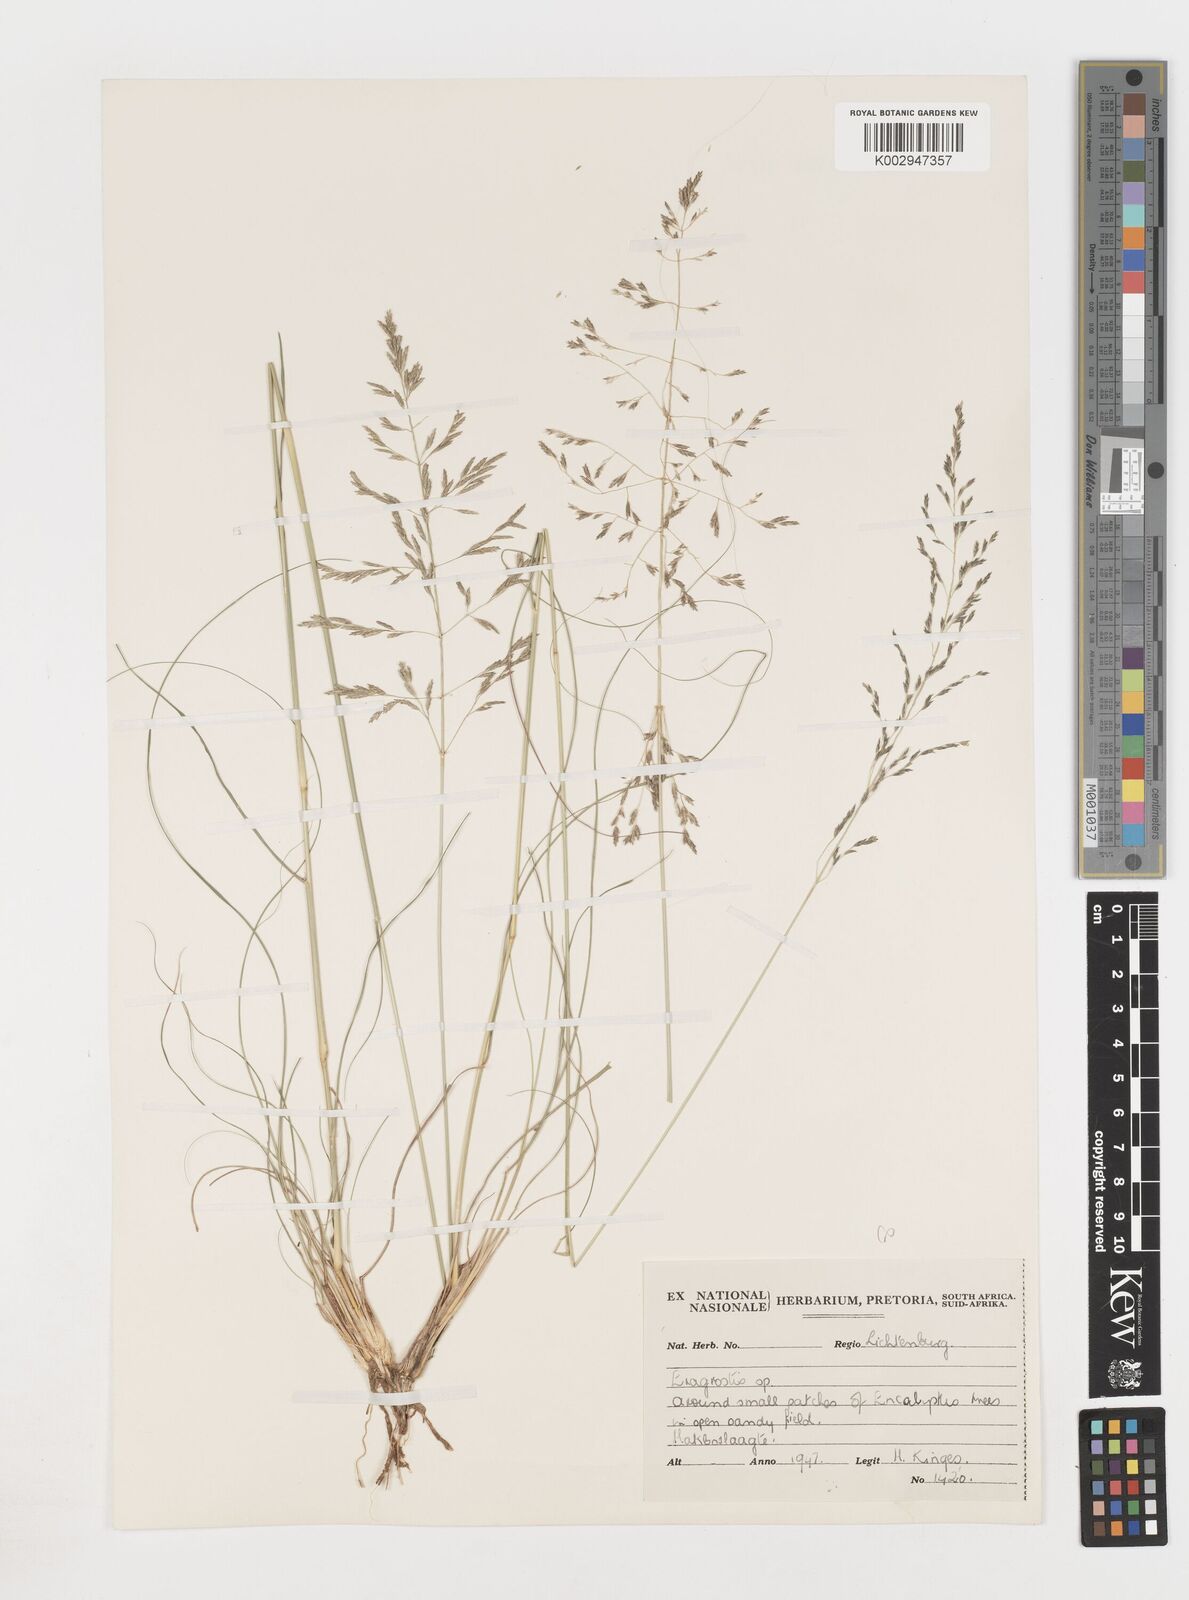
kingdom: Plantae
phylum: Tracheophyta
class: Liliopsida
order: Poales
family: Poaceae
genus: Eragrostis
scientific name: Eragrostis
